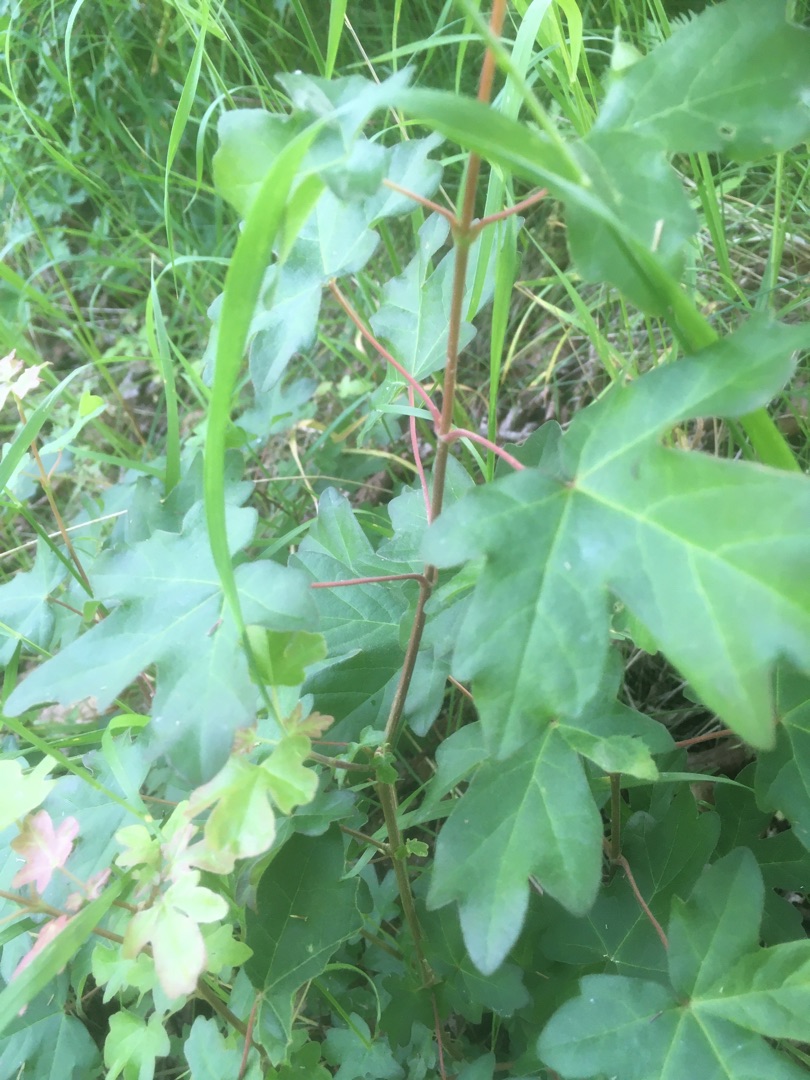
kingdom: Plantae
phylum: Tracheophyta
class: Magnoliopsida
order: Sapindales
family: Sapindaceae
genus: Acer
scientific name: Acer campestre
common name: Navr
